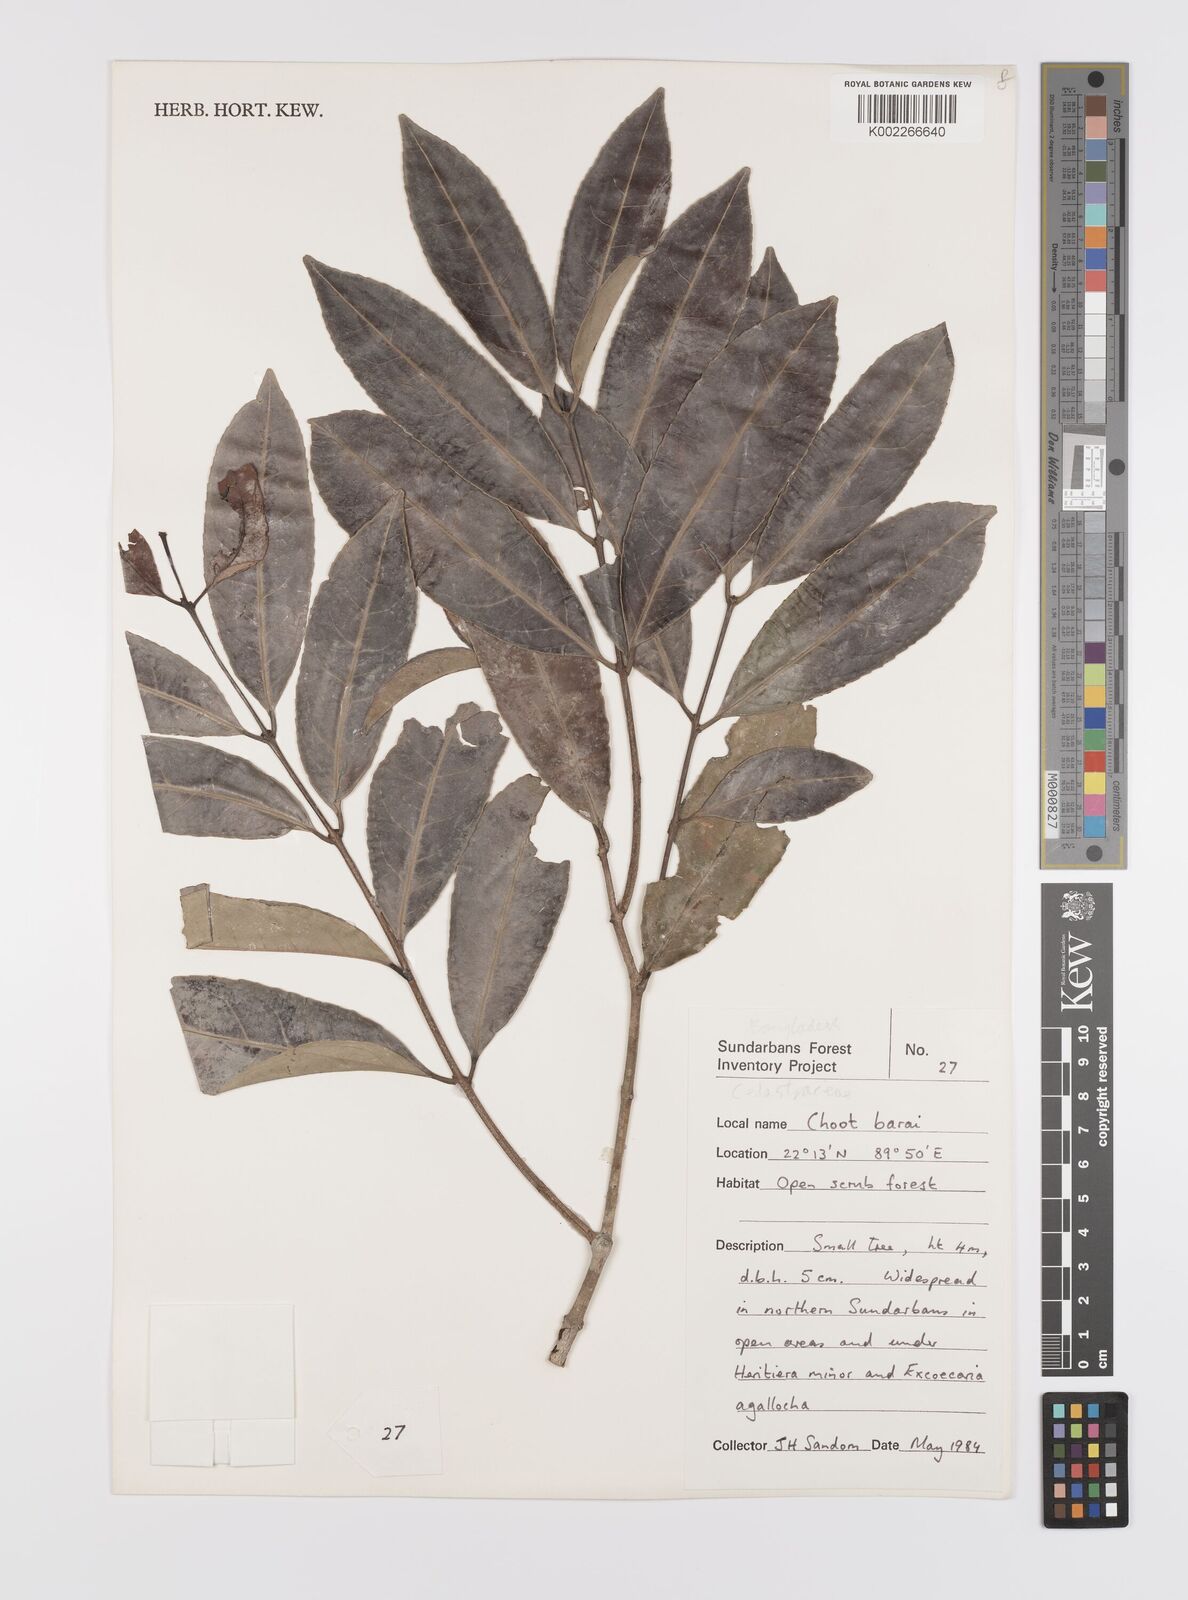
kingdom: Plantae
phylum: Tracheophyta
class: Magnoliopsida
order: Celastrales
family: Celastraceae
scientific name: Celastraceae
